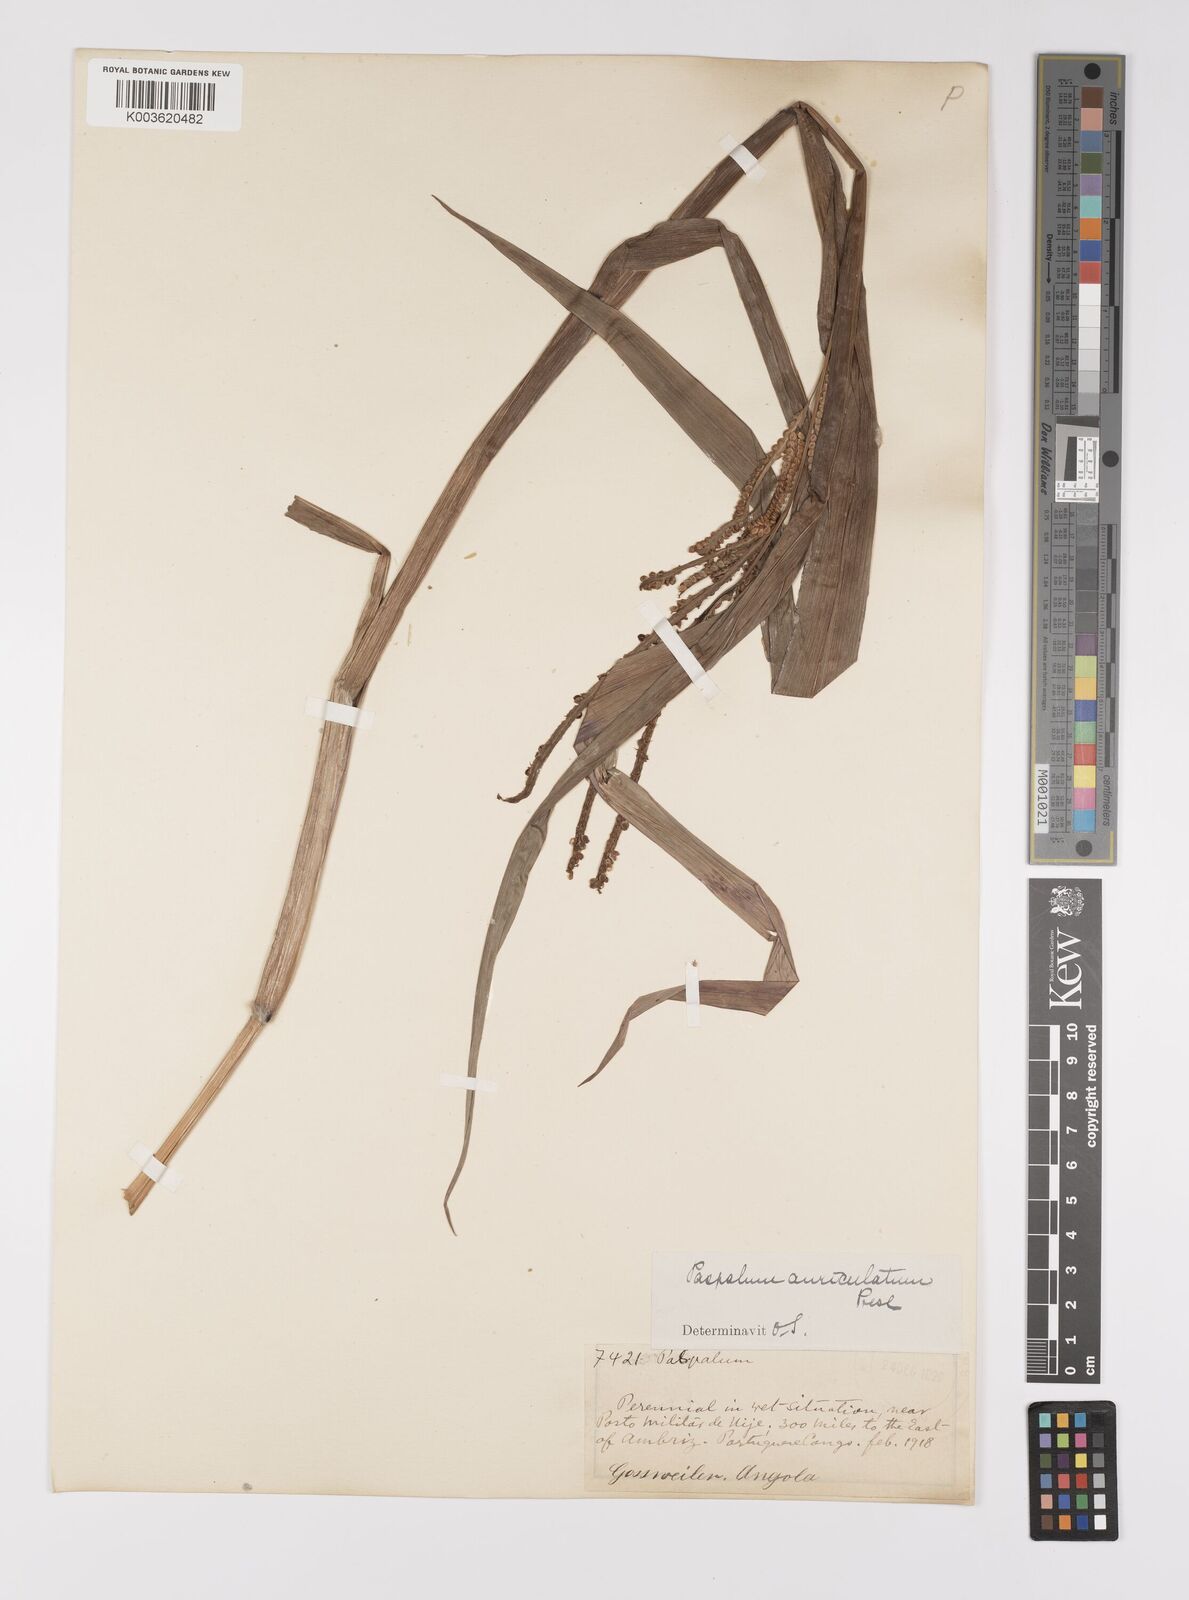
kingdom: Plantae
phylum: Tracheophyta
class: Liliopsida
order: Poales
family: Poaceae
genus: Paspalum
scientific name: Paspalum scrobiculatum
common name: Kodo millet
